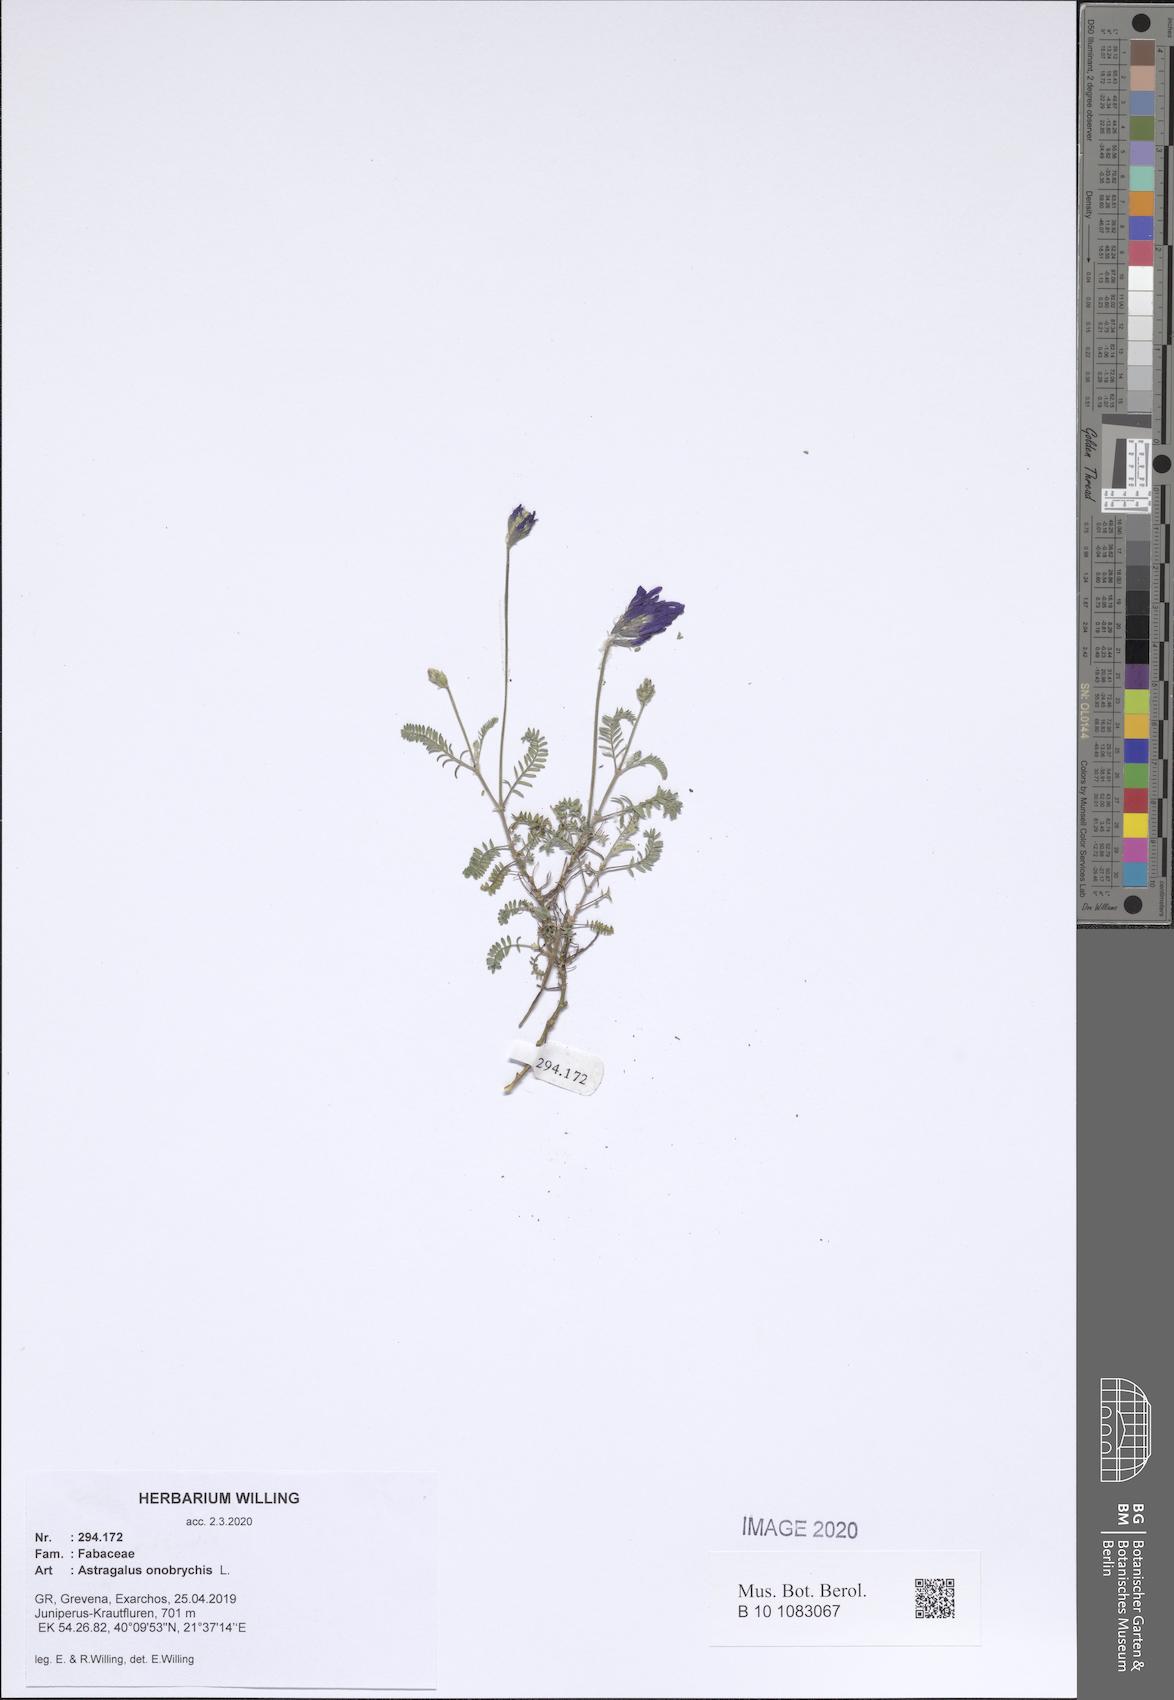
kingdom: Plantae
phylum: Tracheophyta
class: Magnoliopsida
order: Fabales
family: Fabaceae
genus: Astragalus
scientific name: Astragalus onobrychis
